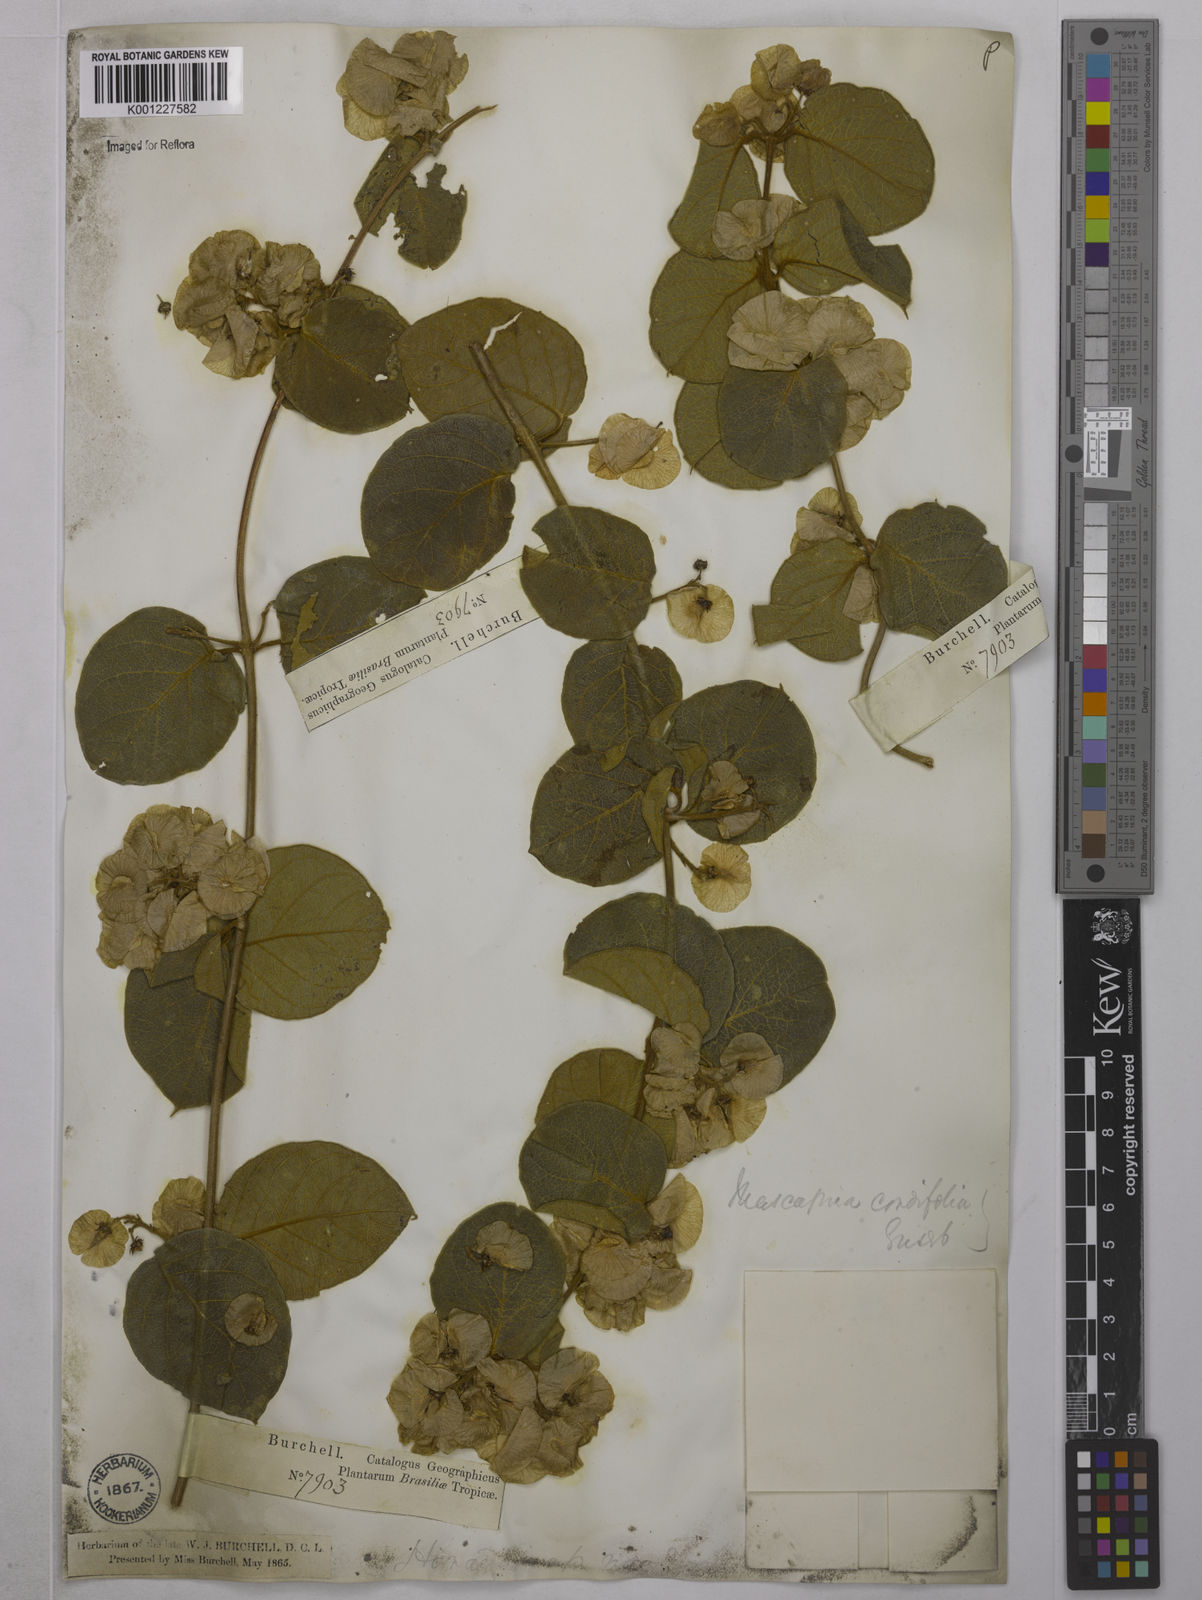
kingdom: Plantae
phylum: Tracheophyta
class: Magnoliopsida
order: Malpighiales
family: Malpighiaceae
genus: Mascagnia
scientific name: Mascagnia cordifolia
